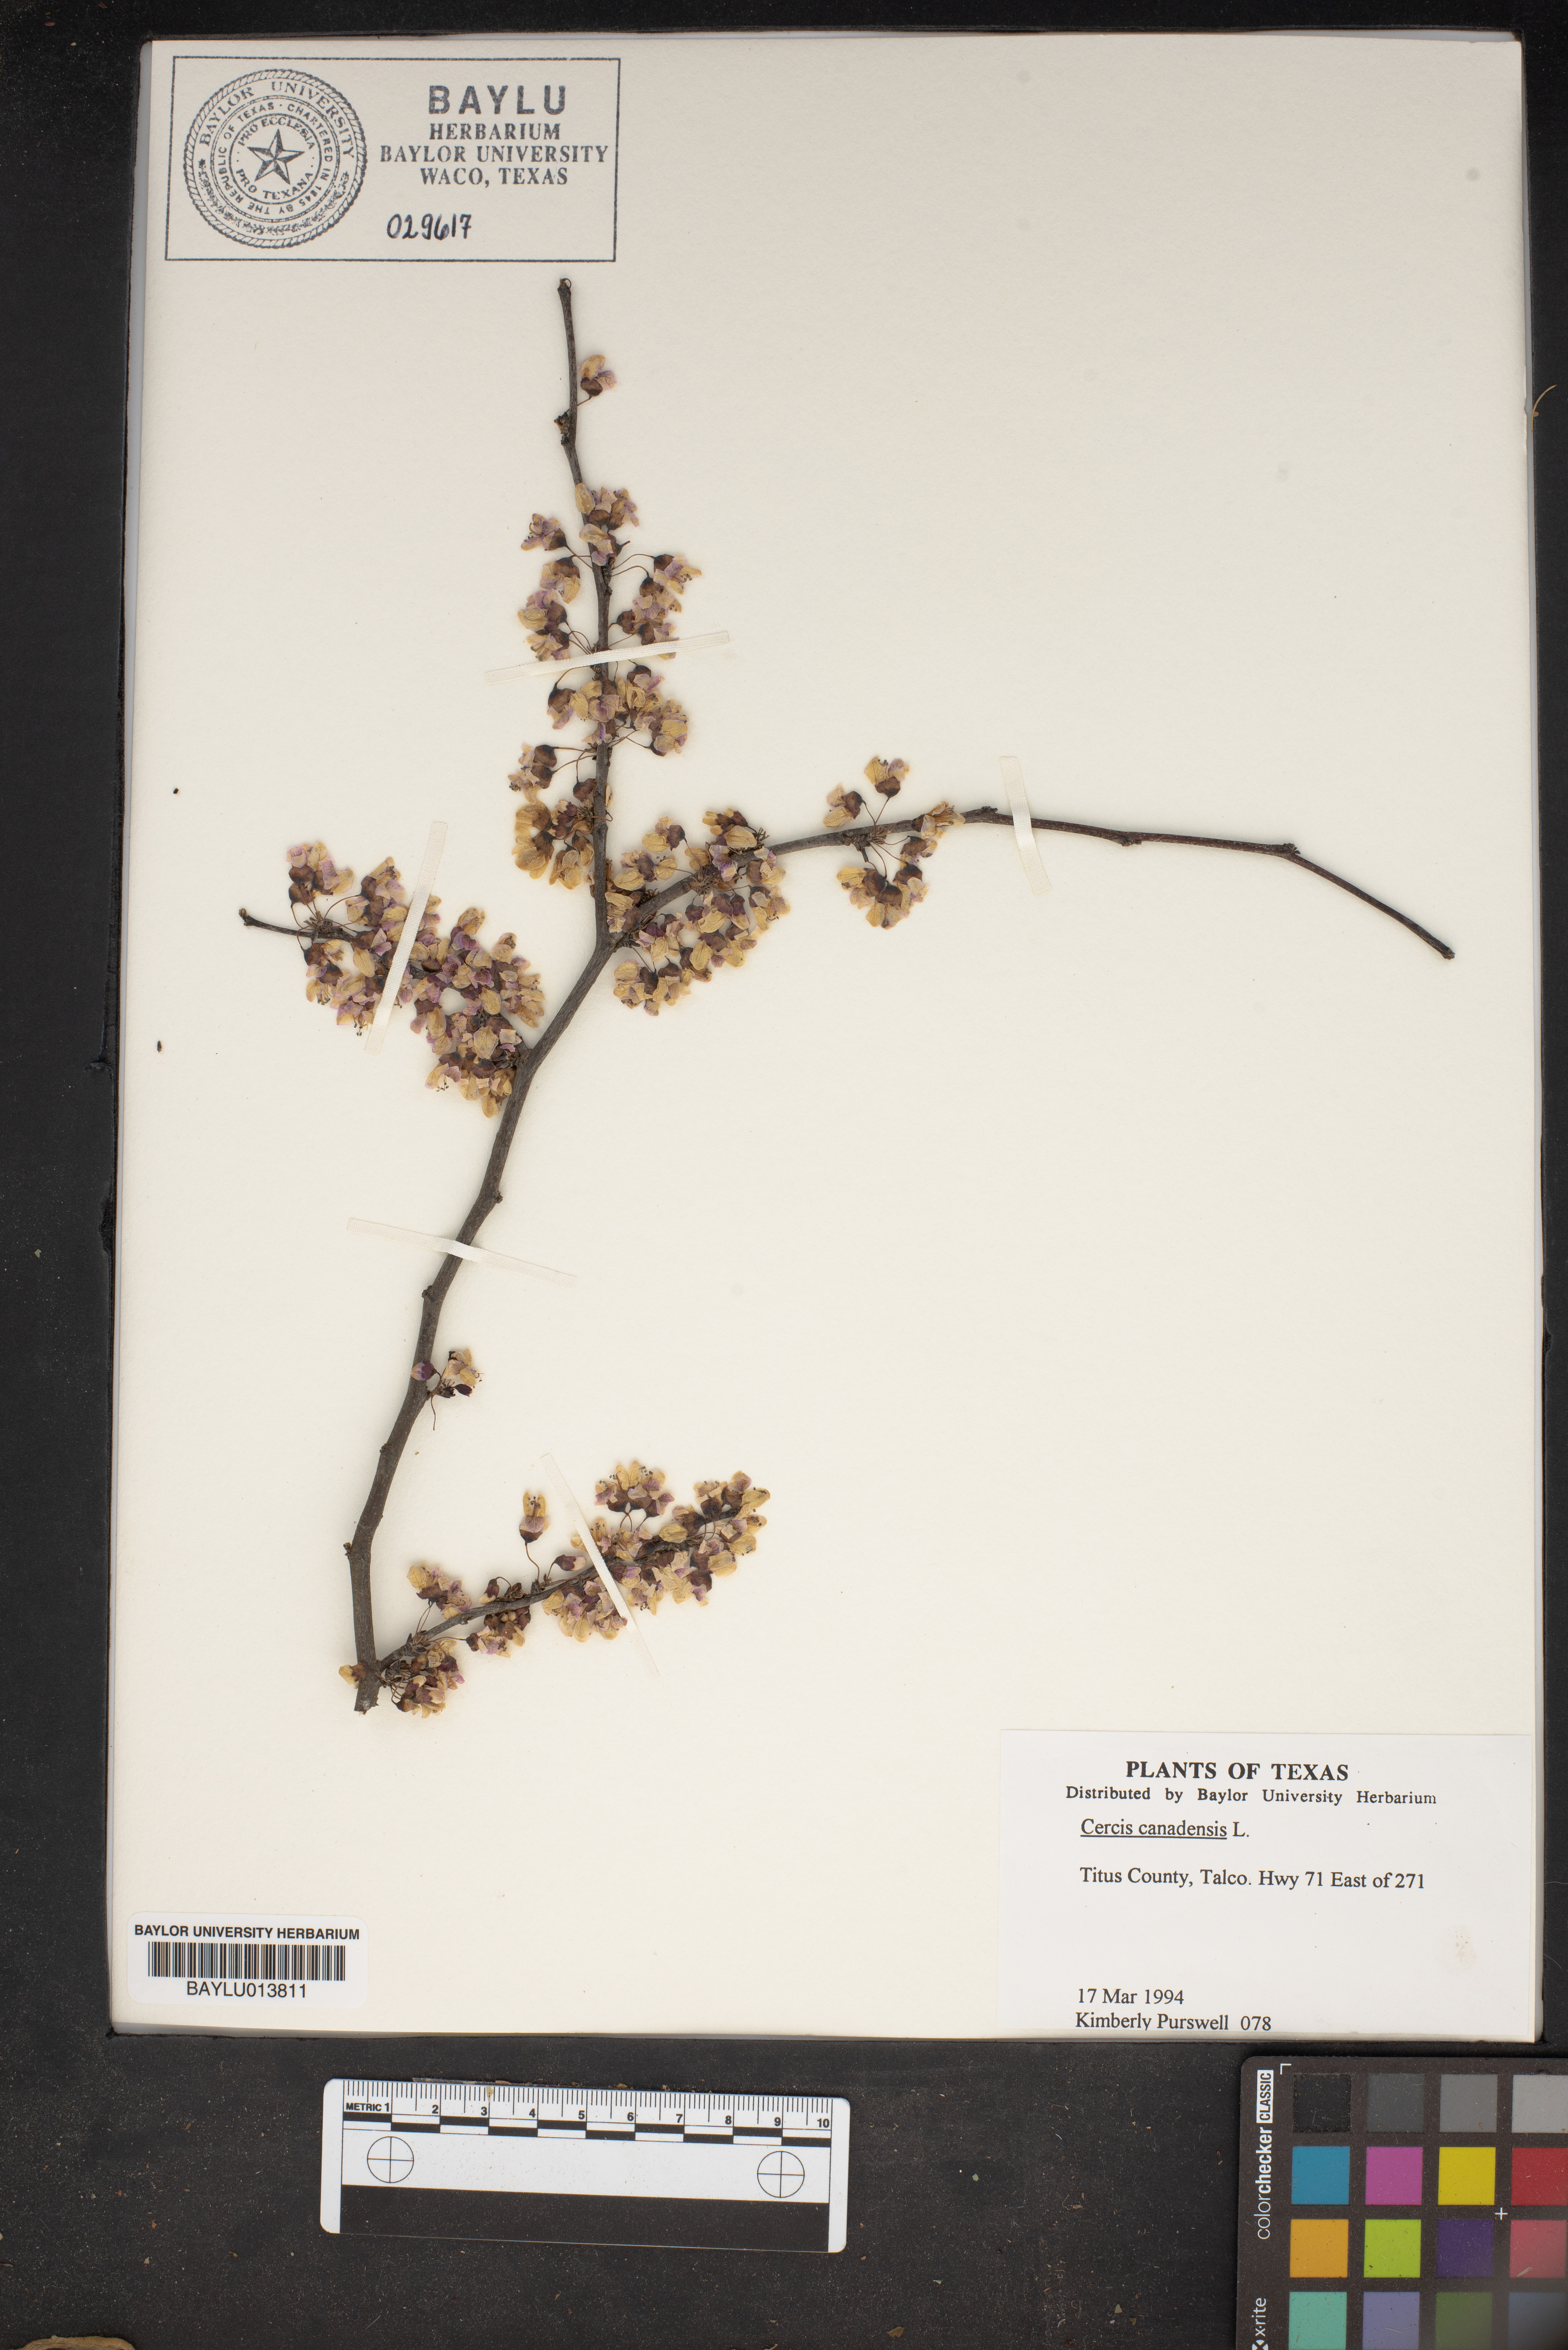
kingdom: Plantae
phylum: Tracheophyta
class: Magnoliopsida
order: Fabales
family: Fabaceae
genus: Cercis
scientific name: Cercis canadensis
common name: Eastern redbud
